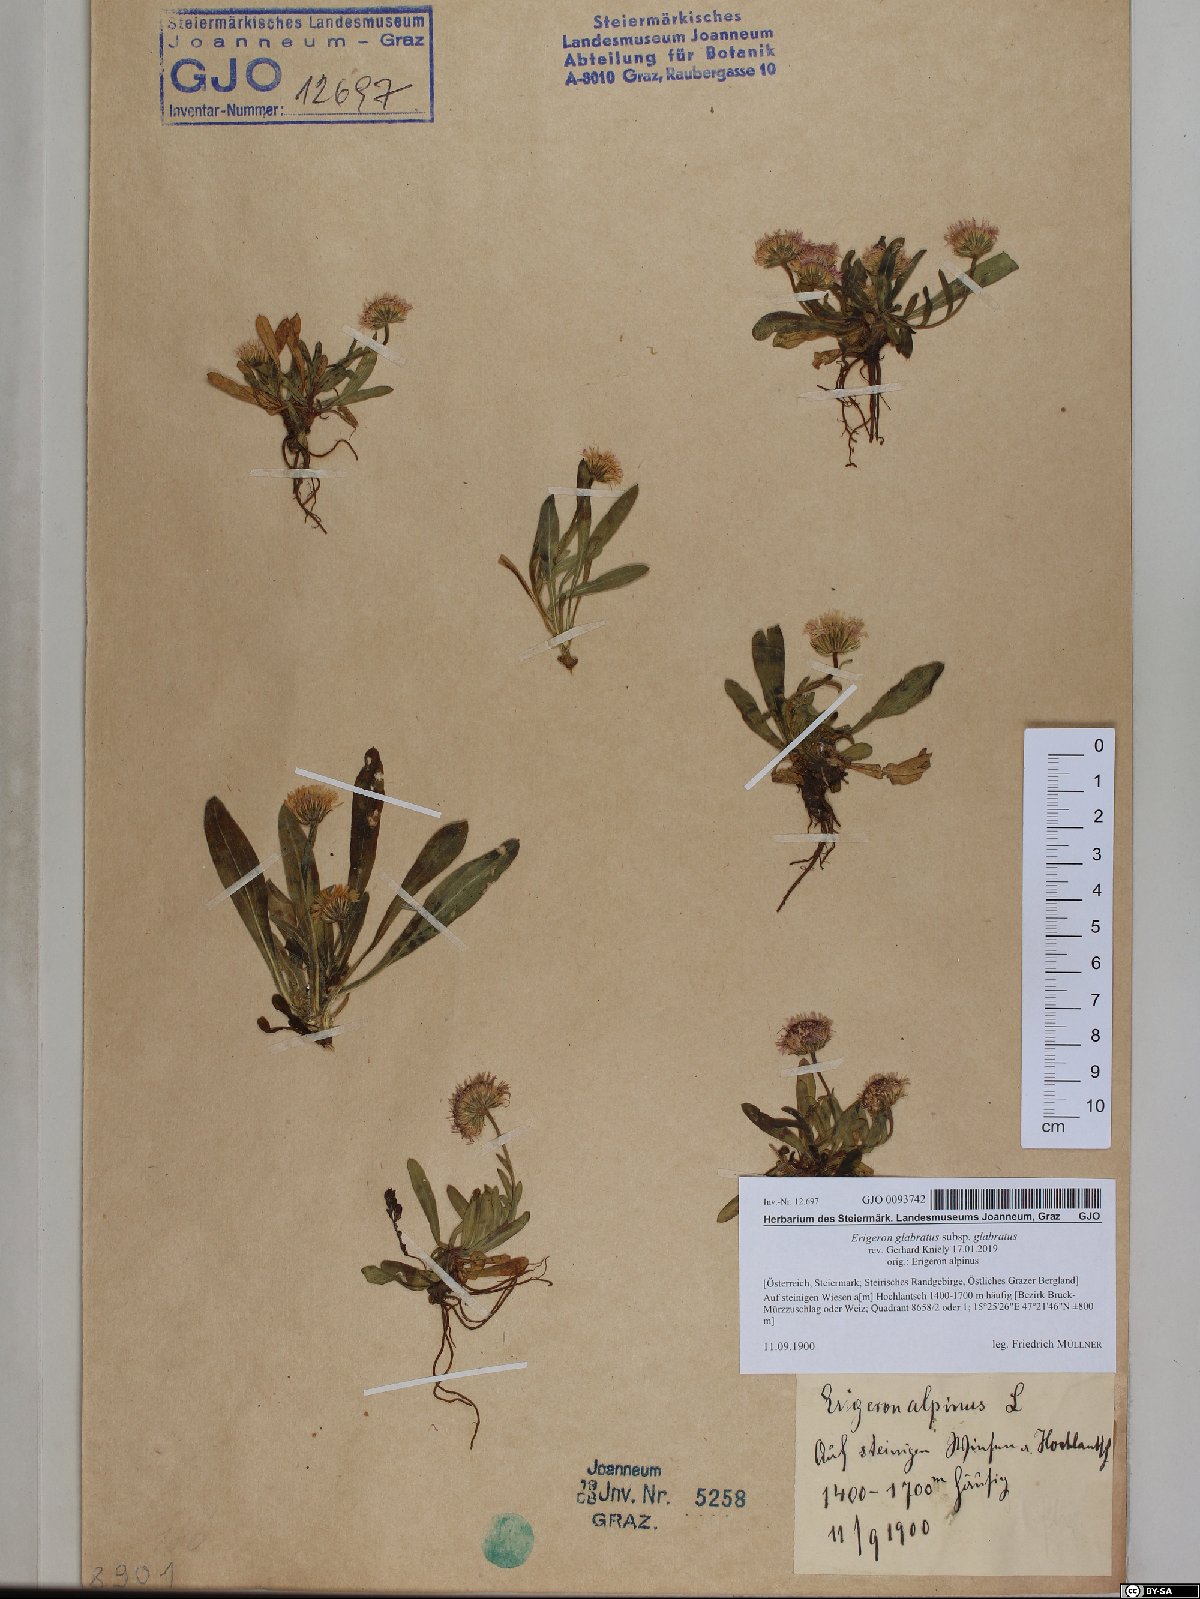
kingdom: Plantae
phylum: Tracheophyta
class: Magnoliopsida
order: Asterales
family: Asteraceae
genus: Erigeron
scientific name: Erigeron glabratus
